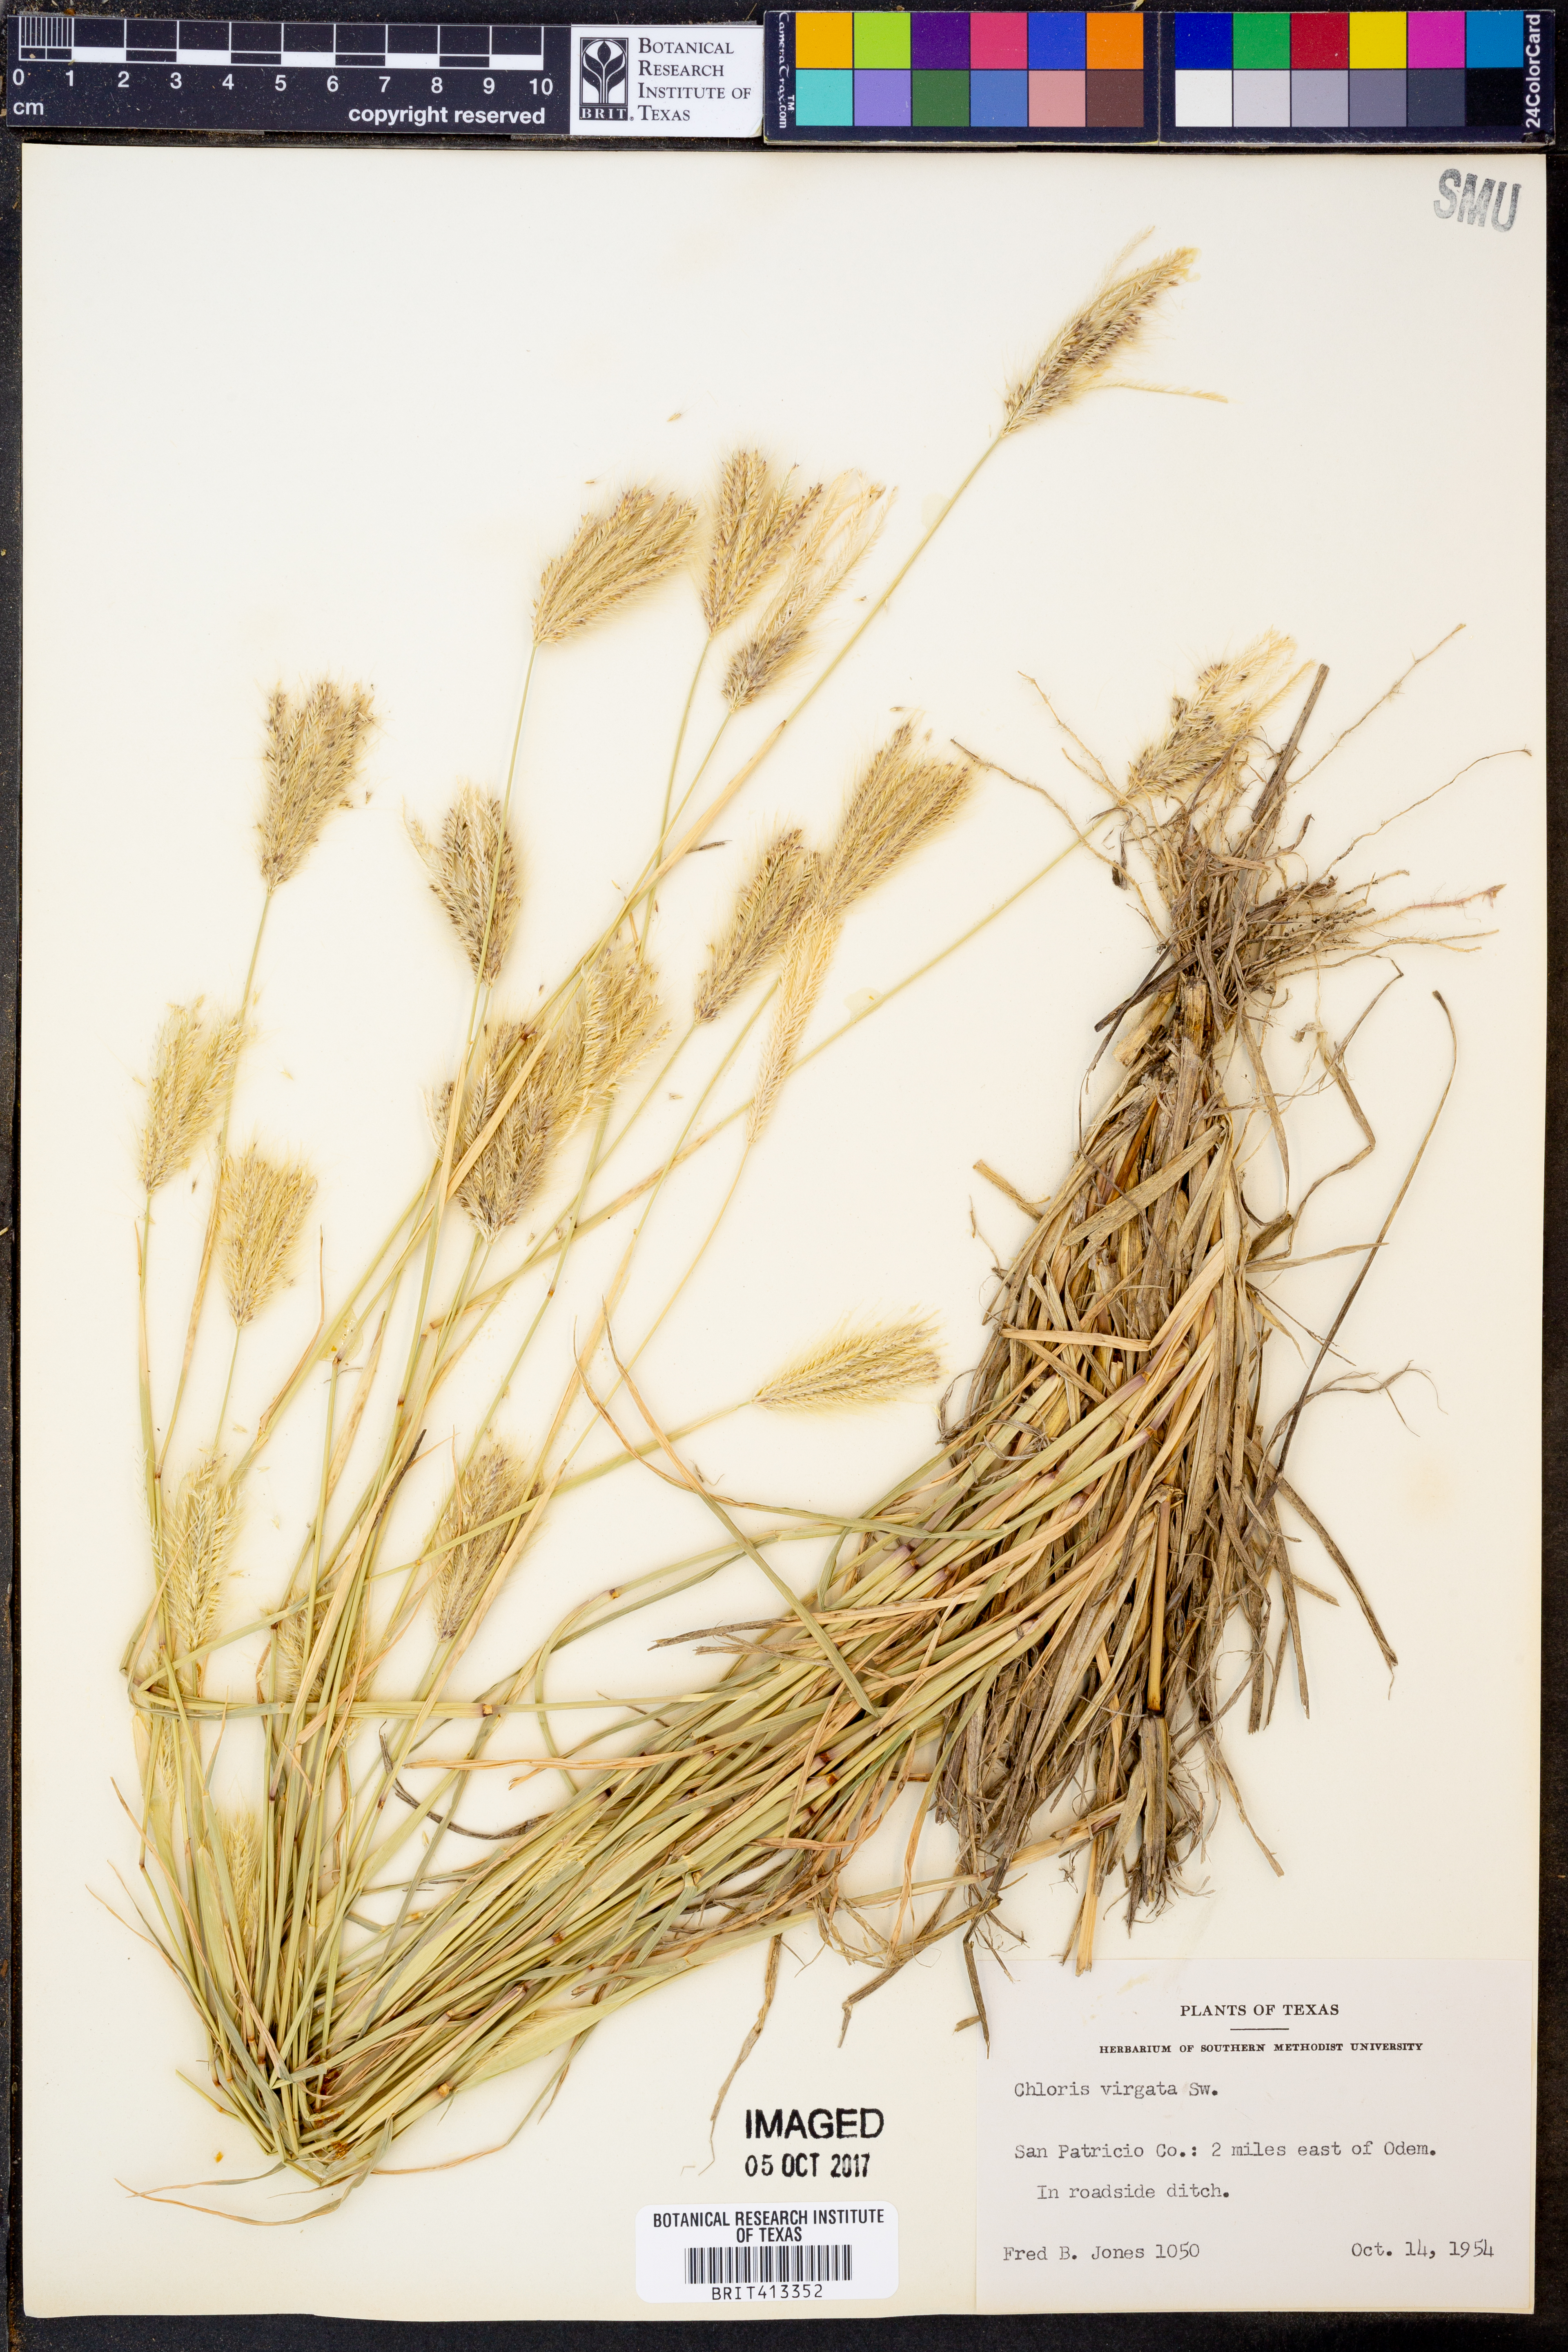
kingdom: Plantae
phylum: Tracheophyta
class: Liliopsida
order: Poales
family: Poaceae
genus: Chloris
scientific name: Chloris virgata
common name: Feathery rhodes-grass
